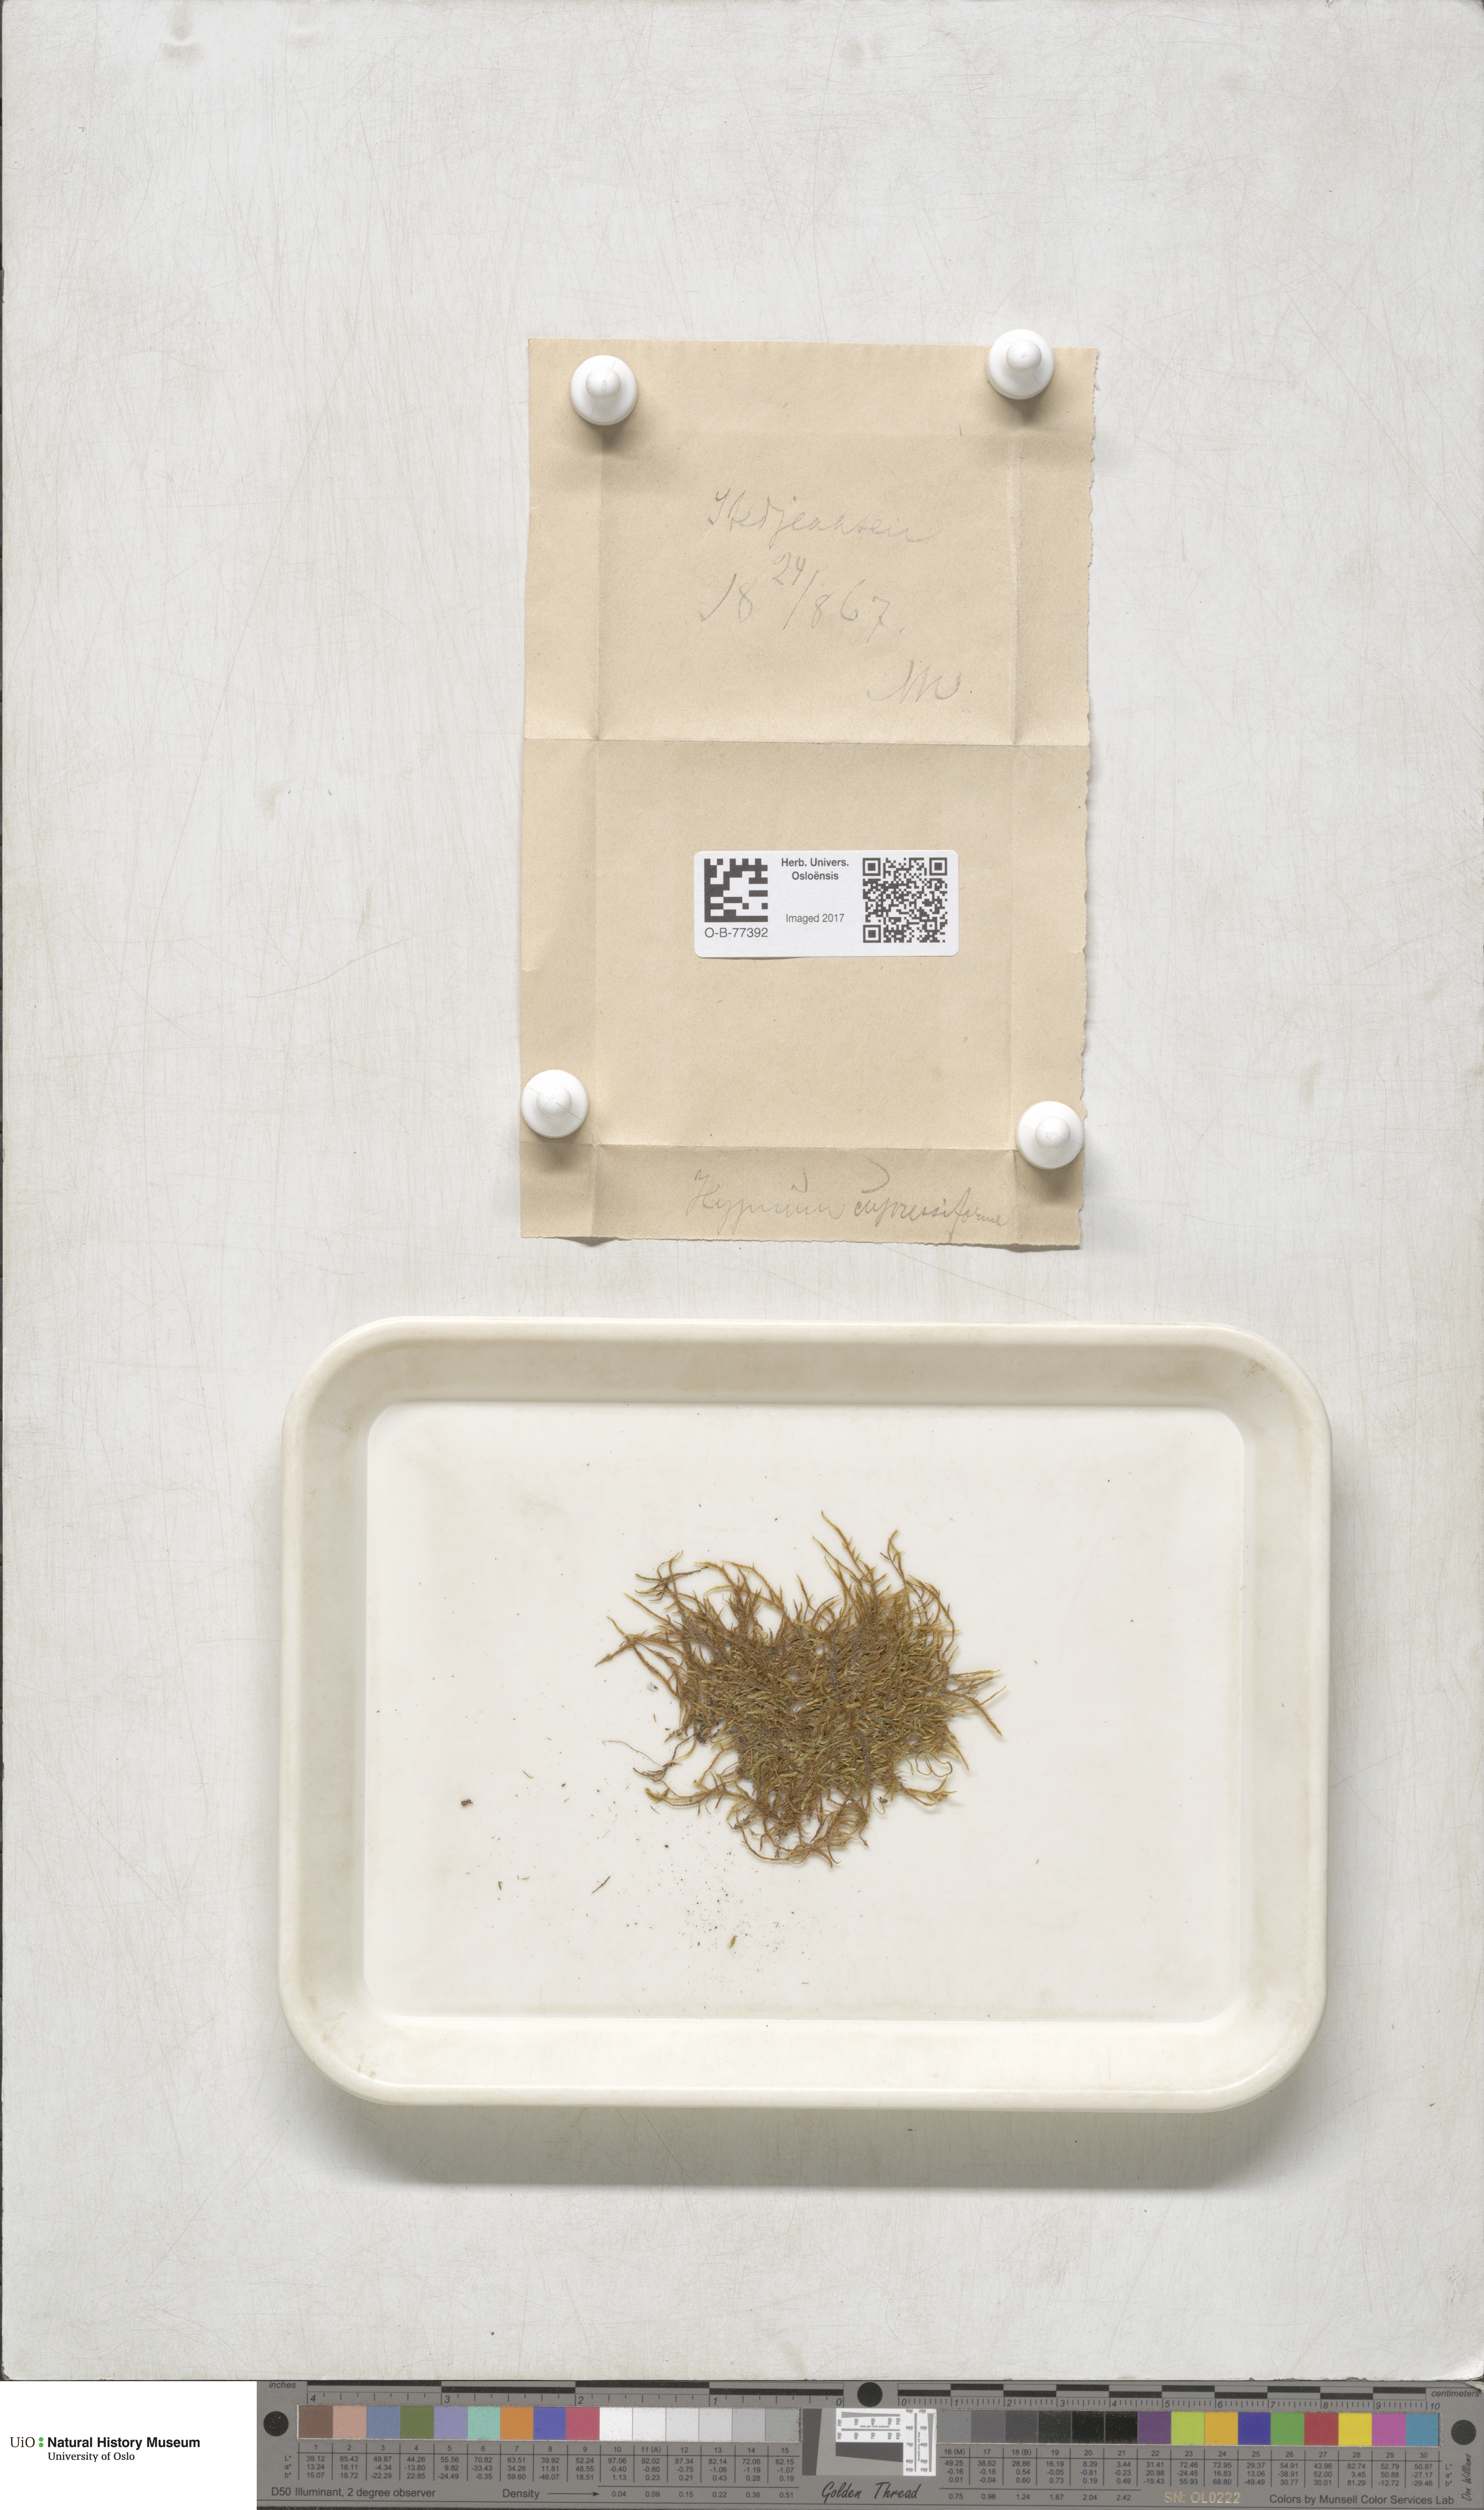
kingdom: Plantae
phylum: Bryophyta
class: Bryopsida
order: Hypnales
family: Hypnaceae
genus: Hypnum
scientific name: Hypnum cupressiforme
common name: Cypress-leaved plait-moss
